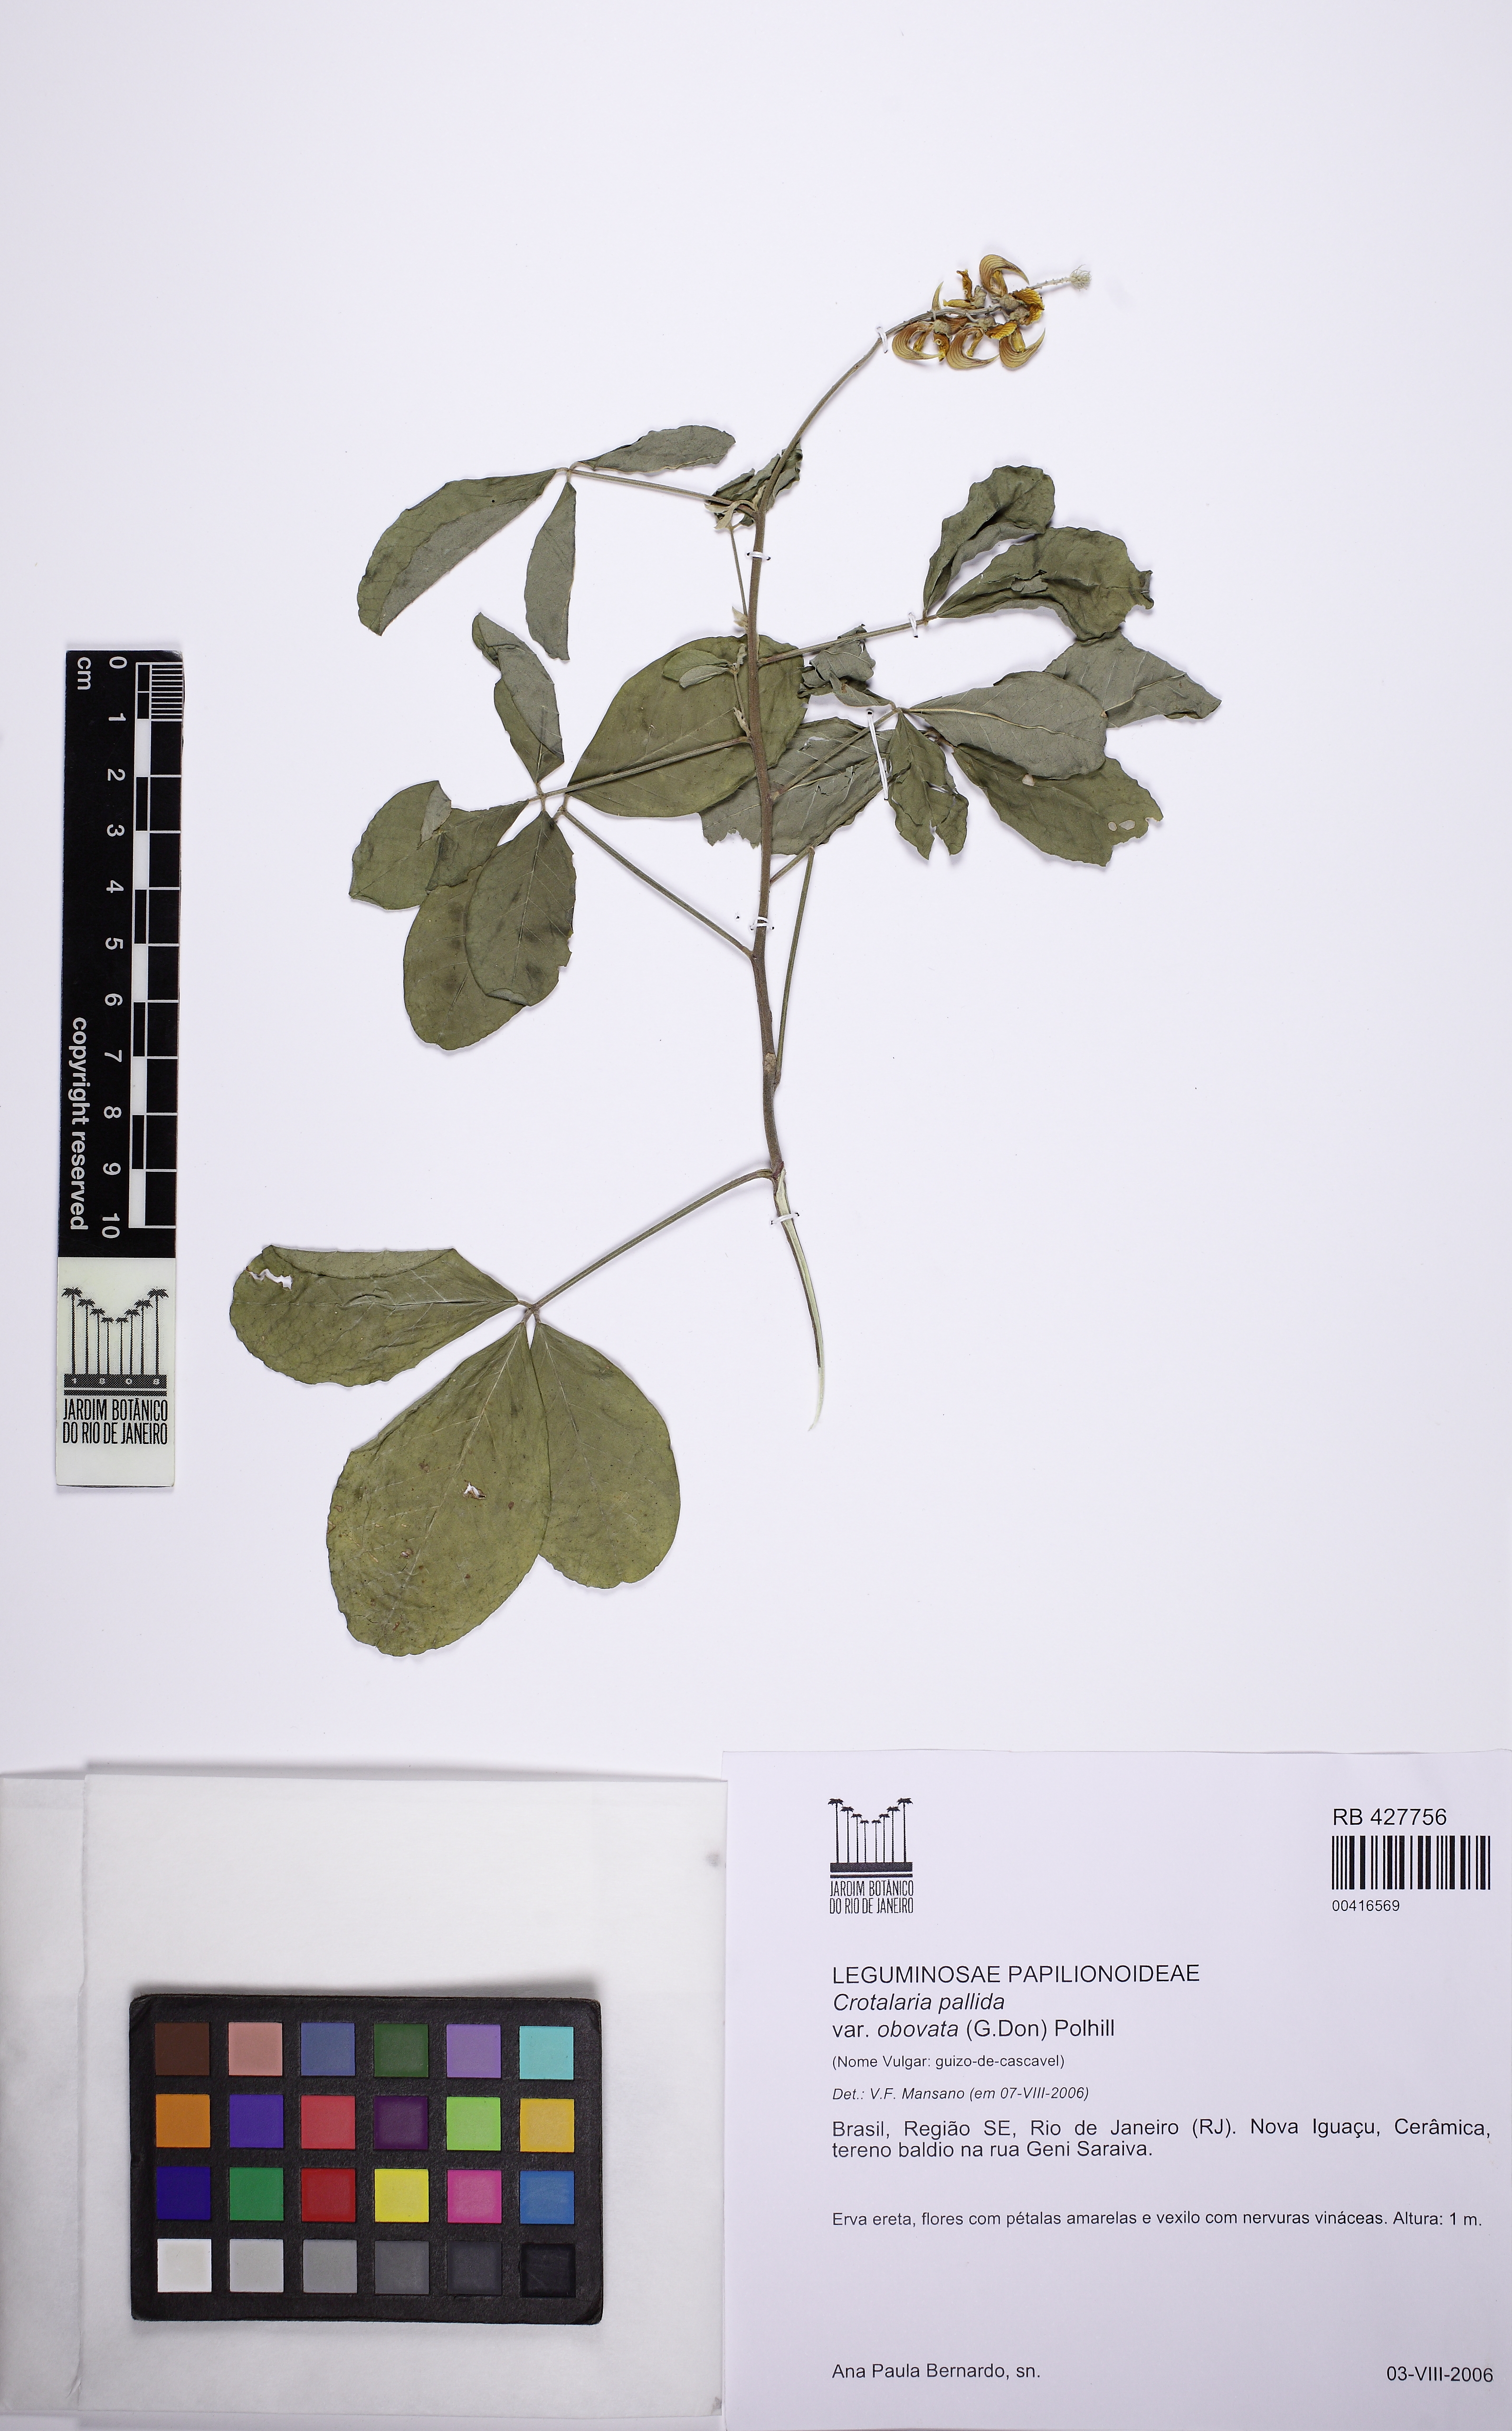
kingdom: Plantae
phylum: Tracheophyta
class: Magnoliopsida
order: Fabales
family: Fabaceae
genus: Crotalaria
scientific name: Crotalaria pallida
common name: Smooth rattlebox
